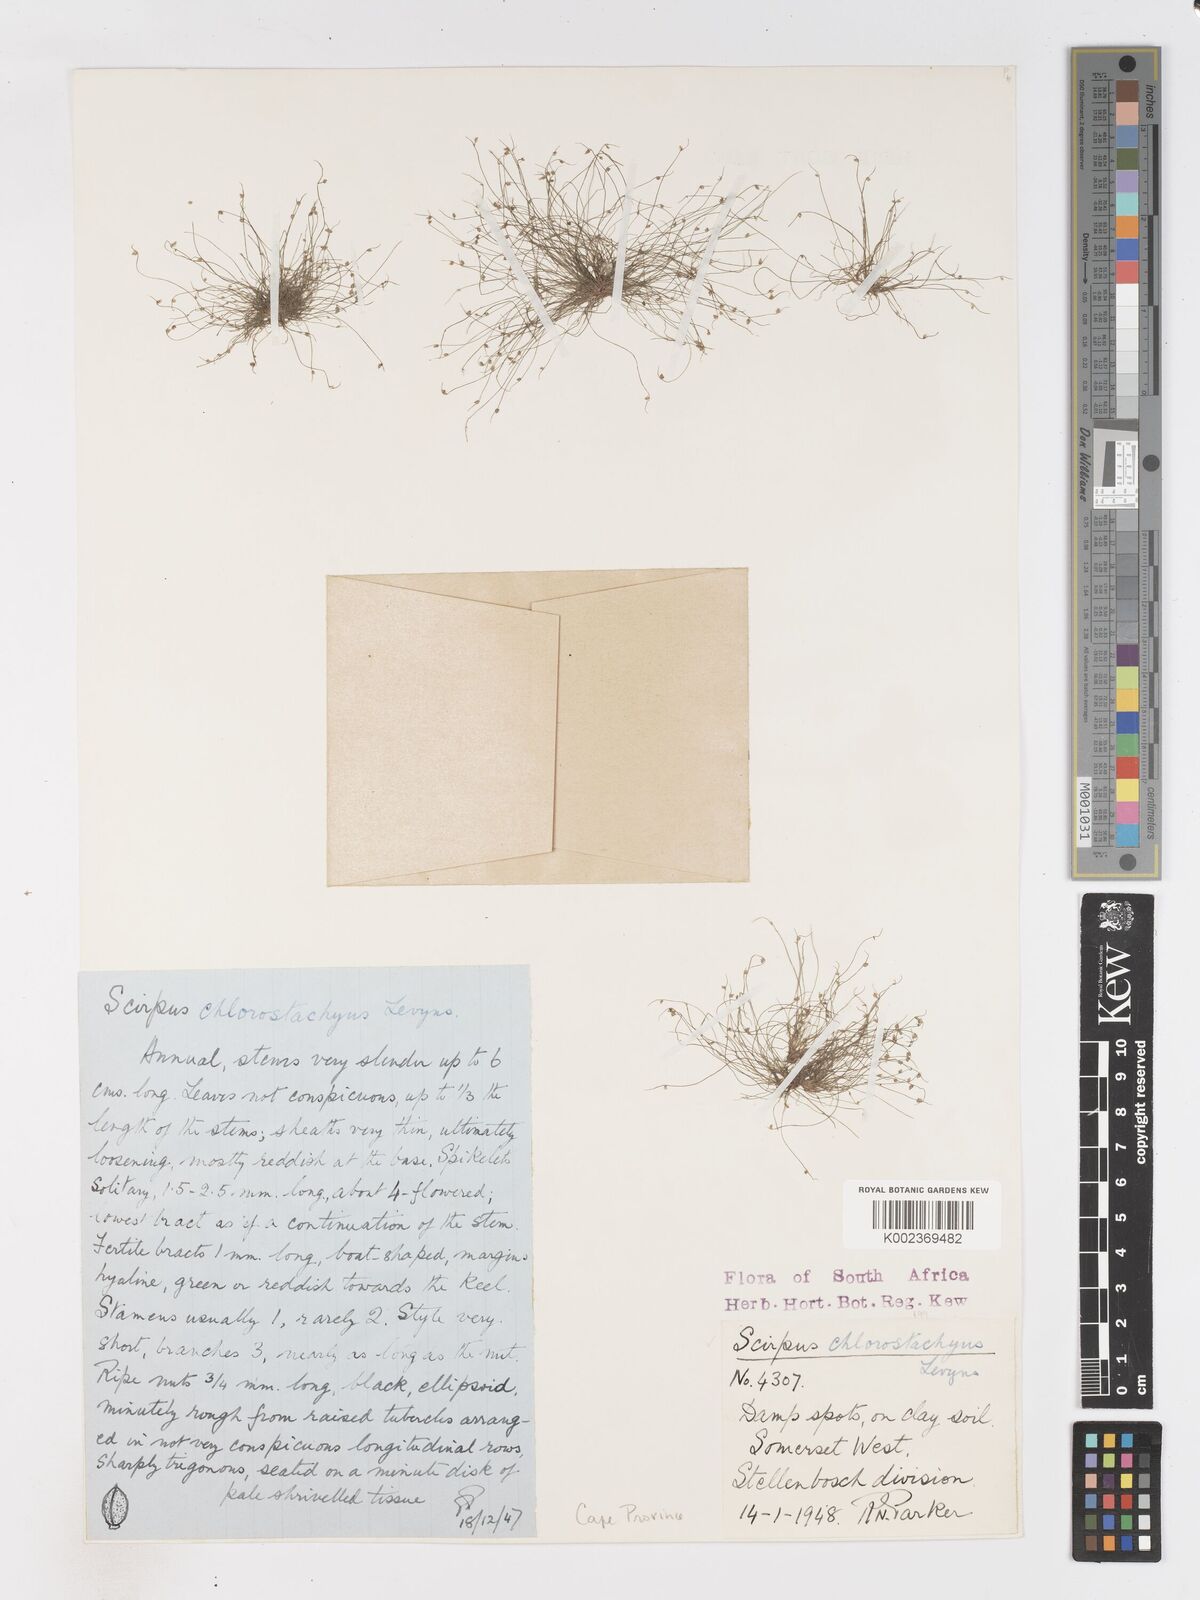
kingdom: Plantae
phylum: Tracheophyta
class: Liliopsida
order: Poales
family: Cyperaceae
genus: Isolepis
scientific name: Isolepis sepulcralis
